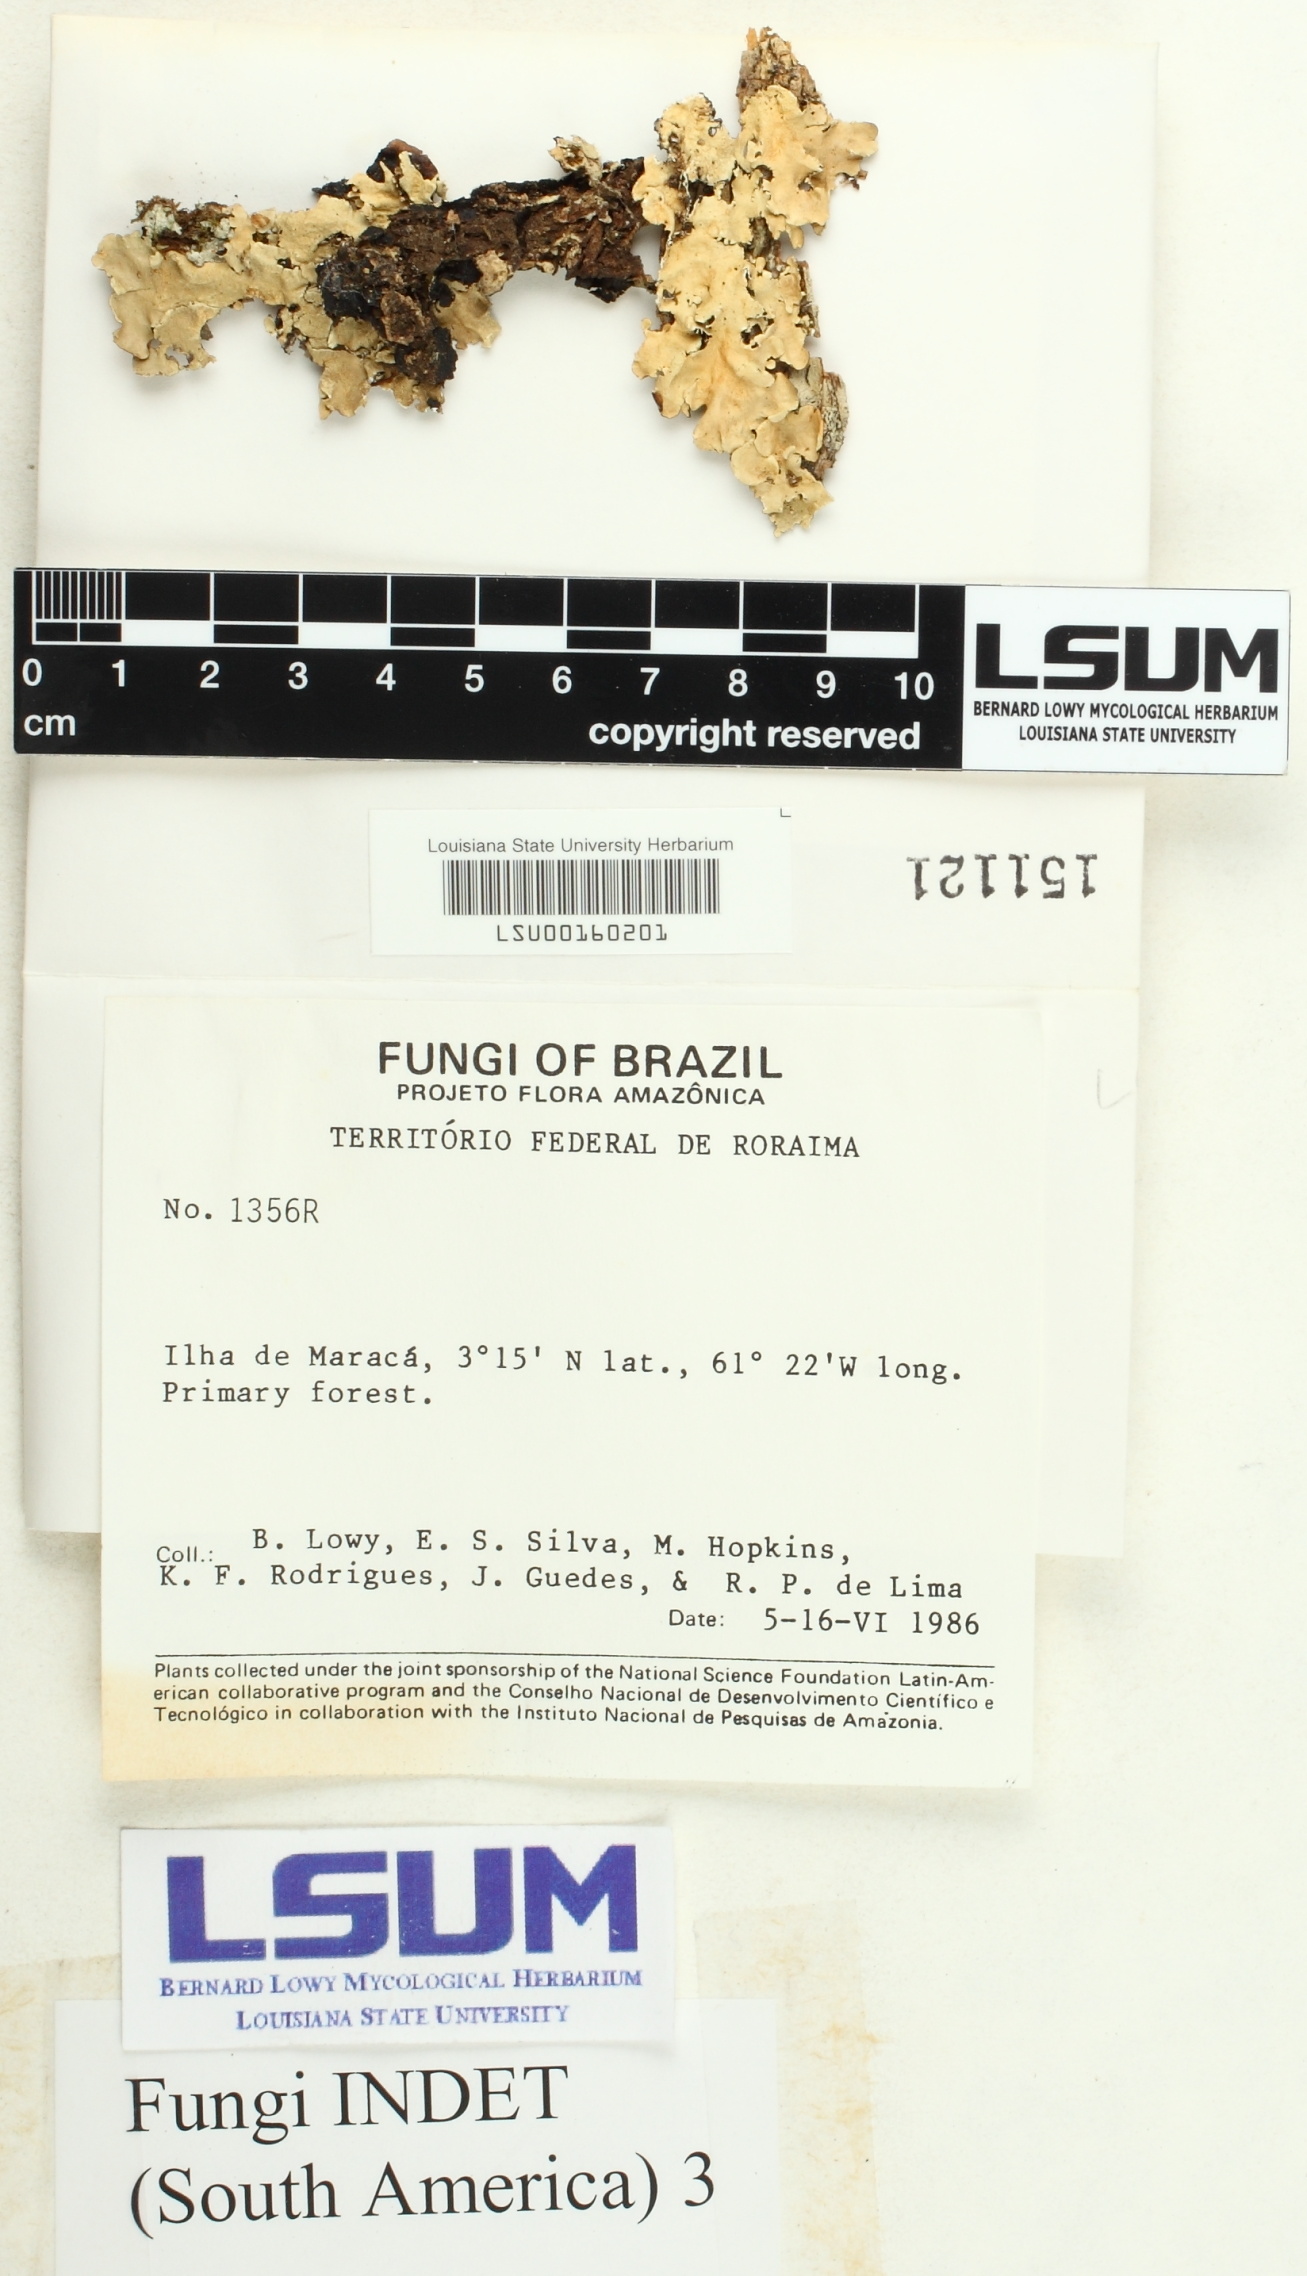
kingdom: Fungi
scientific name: Fungi
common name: Fungi
